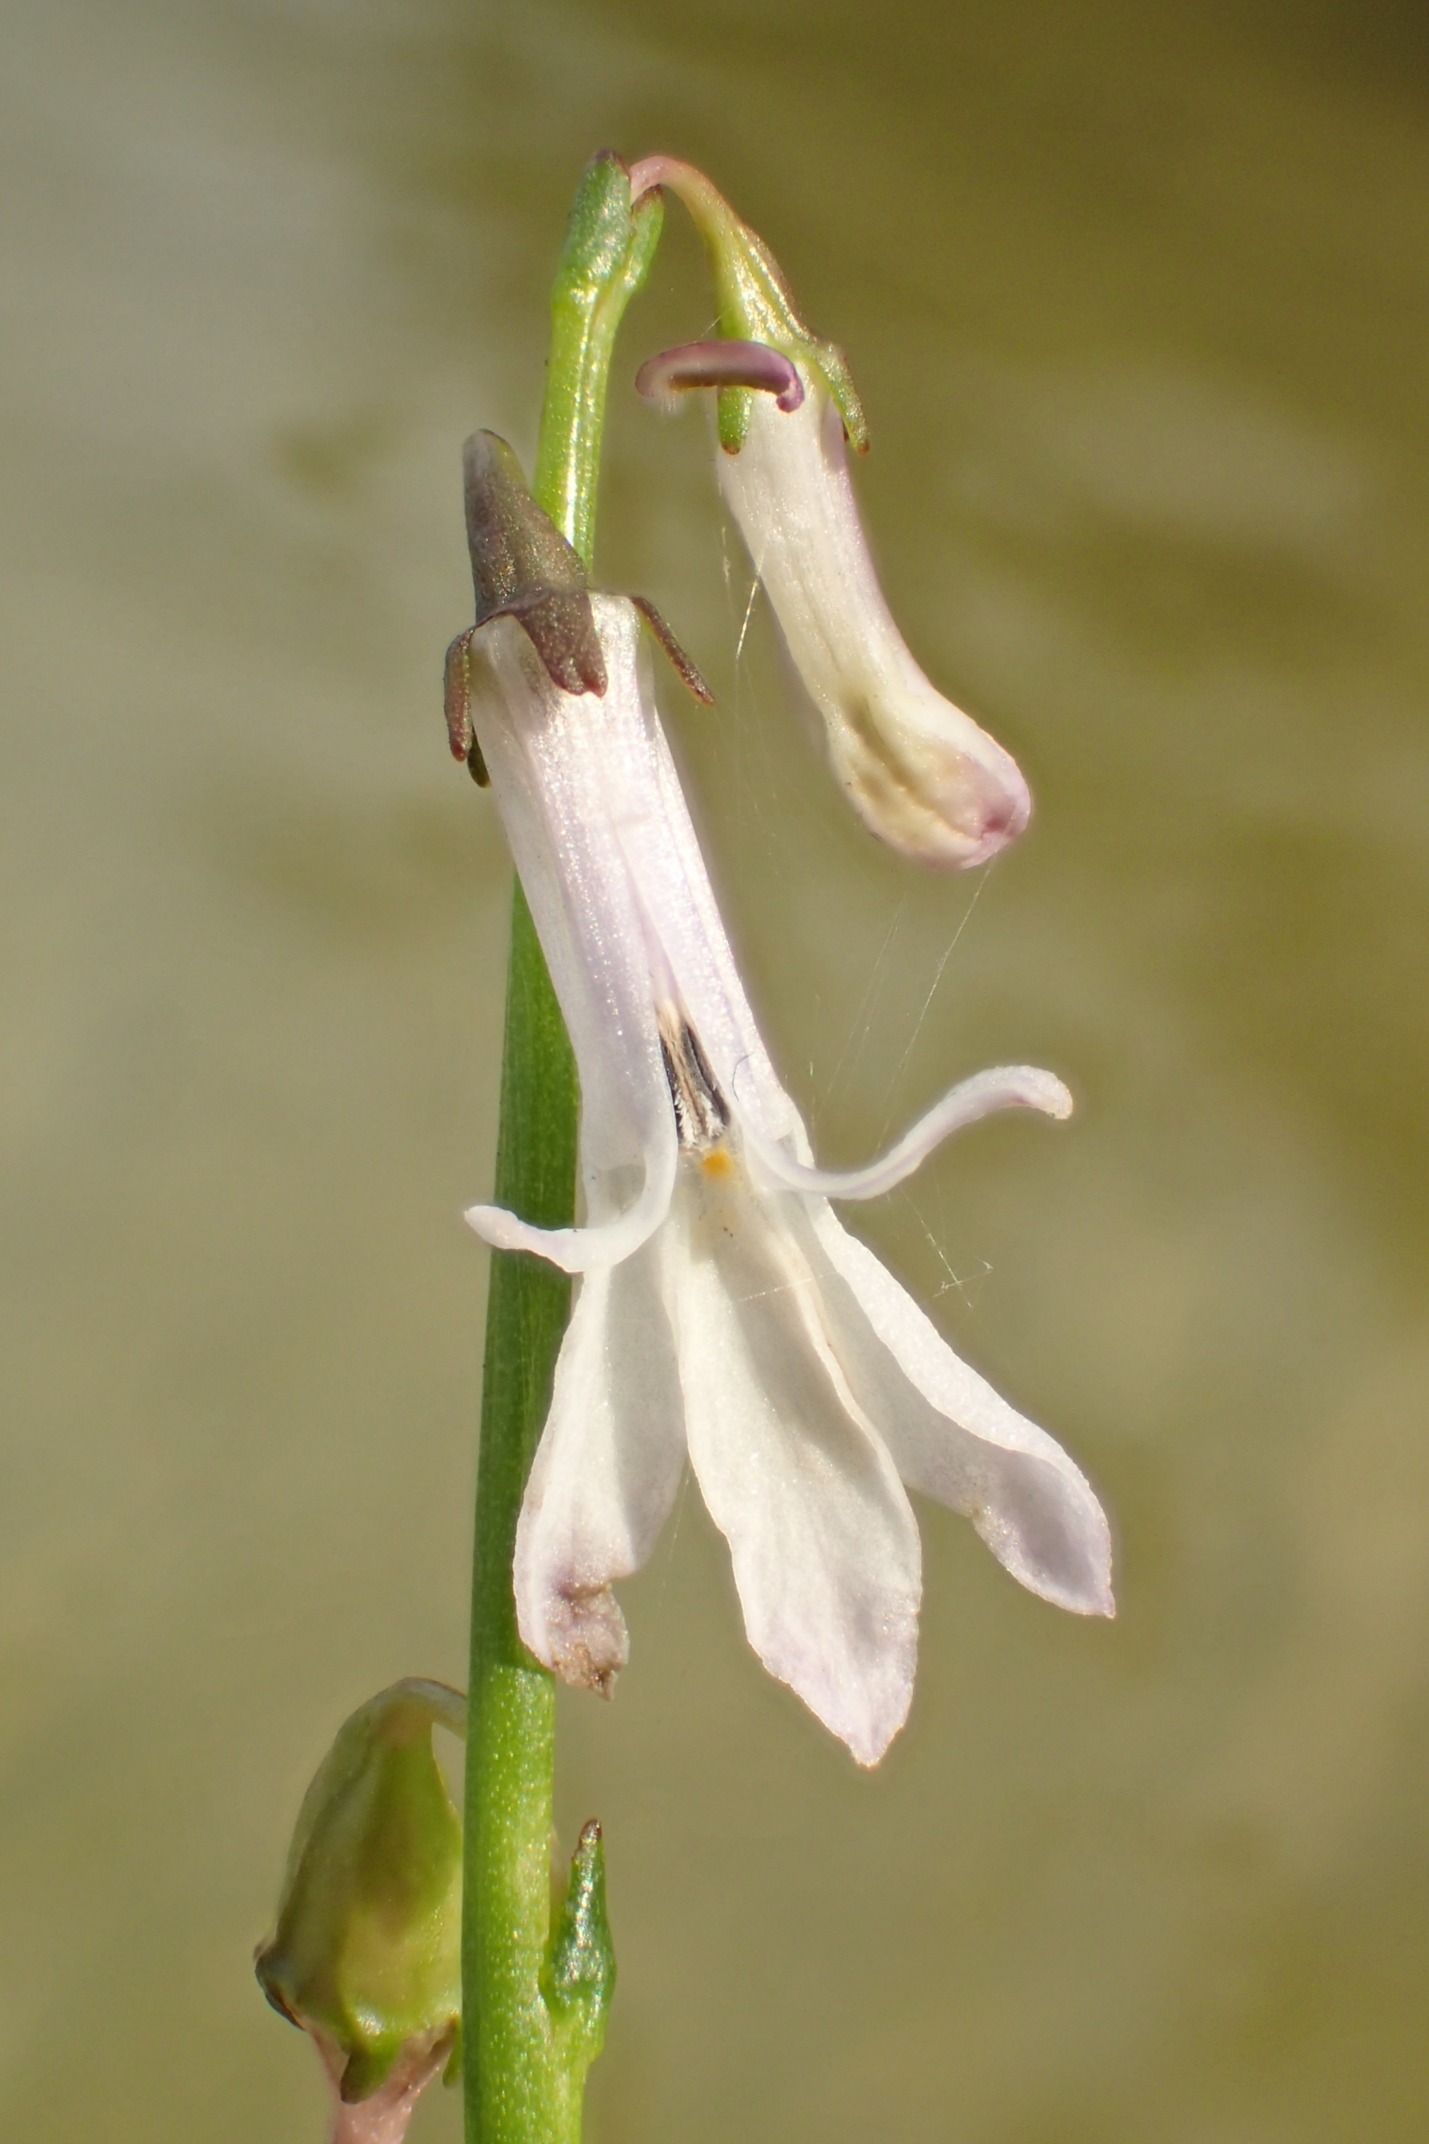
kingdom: Plantae
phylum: Tracheophyta
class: Magnoliopsida
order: Asterales
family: Campanulaceae
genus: Lobelia
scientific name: Lobelia dortmanna
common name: Tvepibet lobelie
